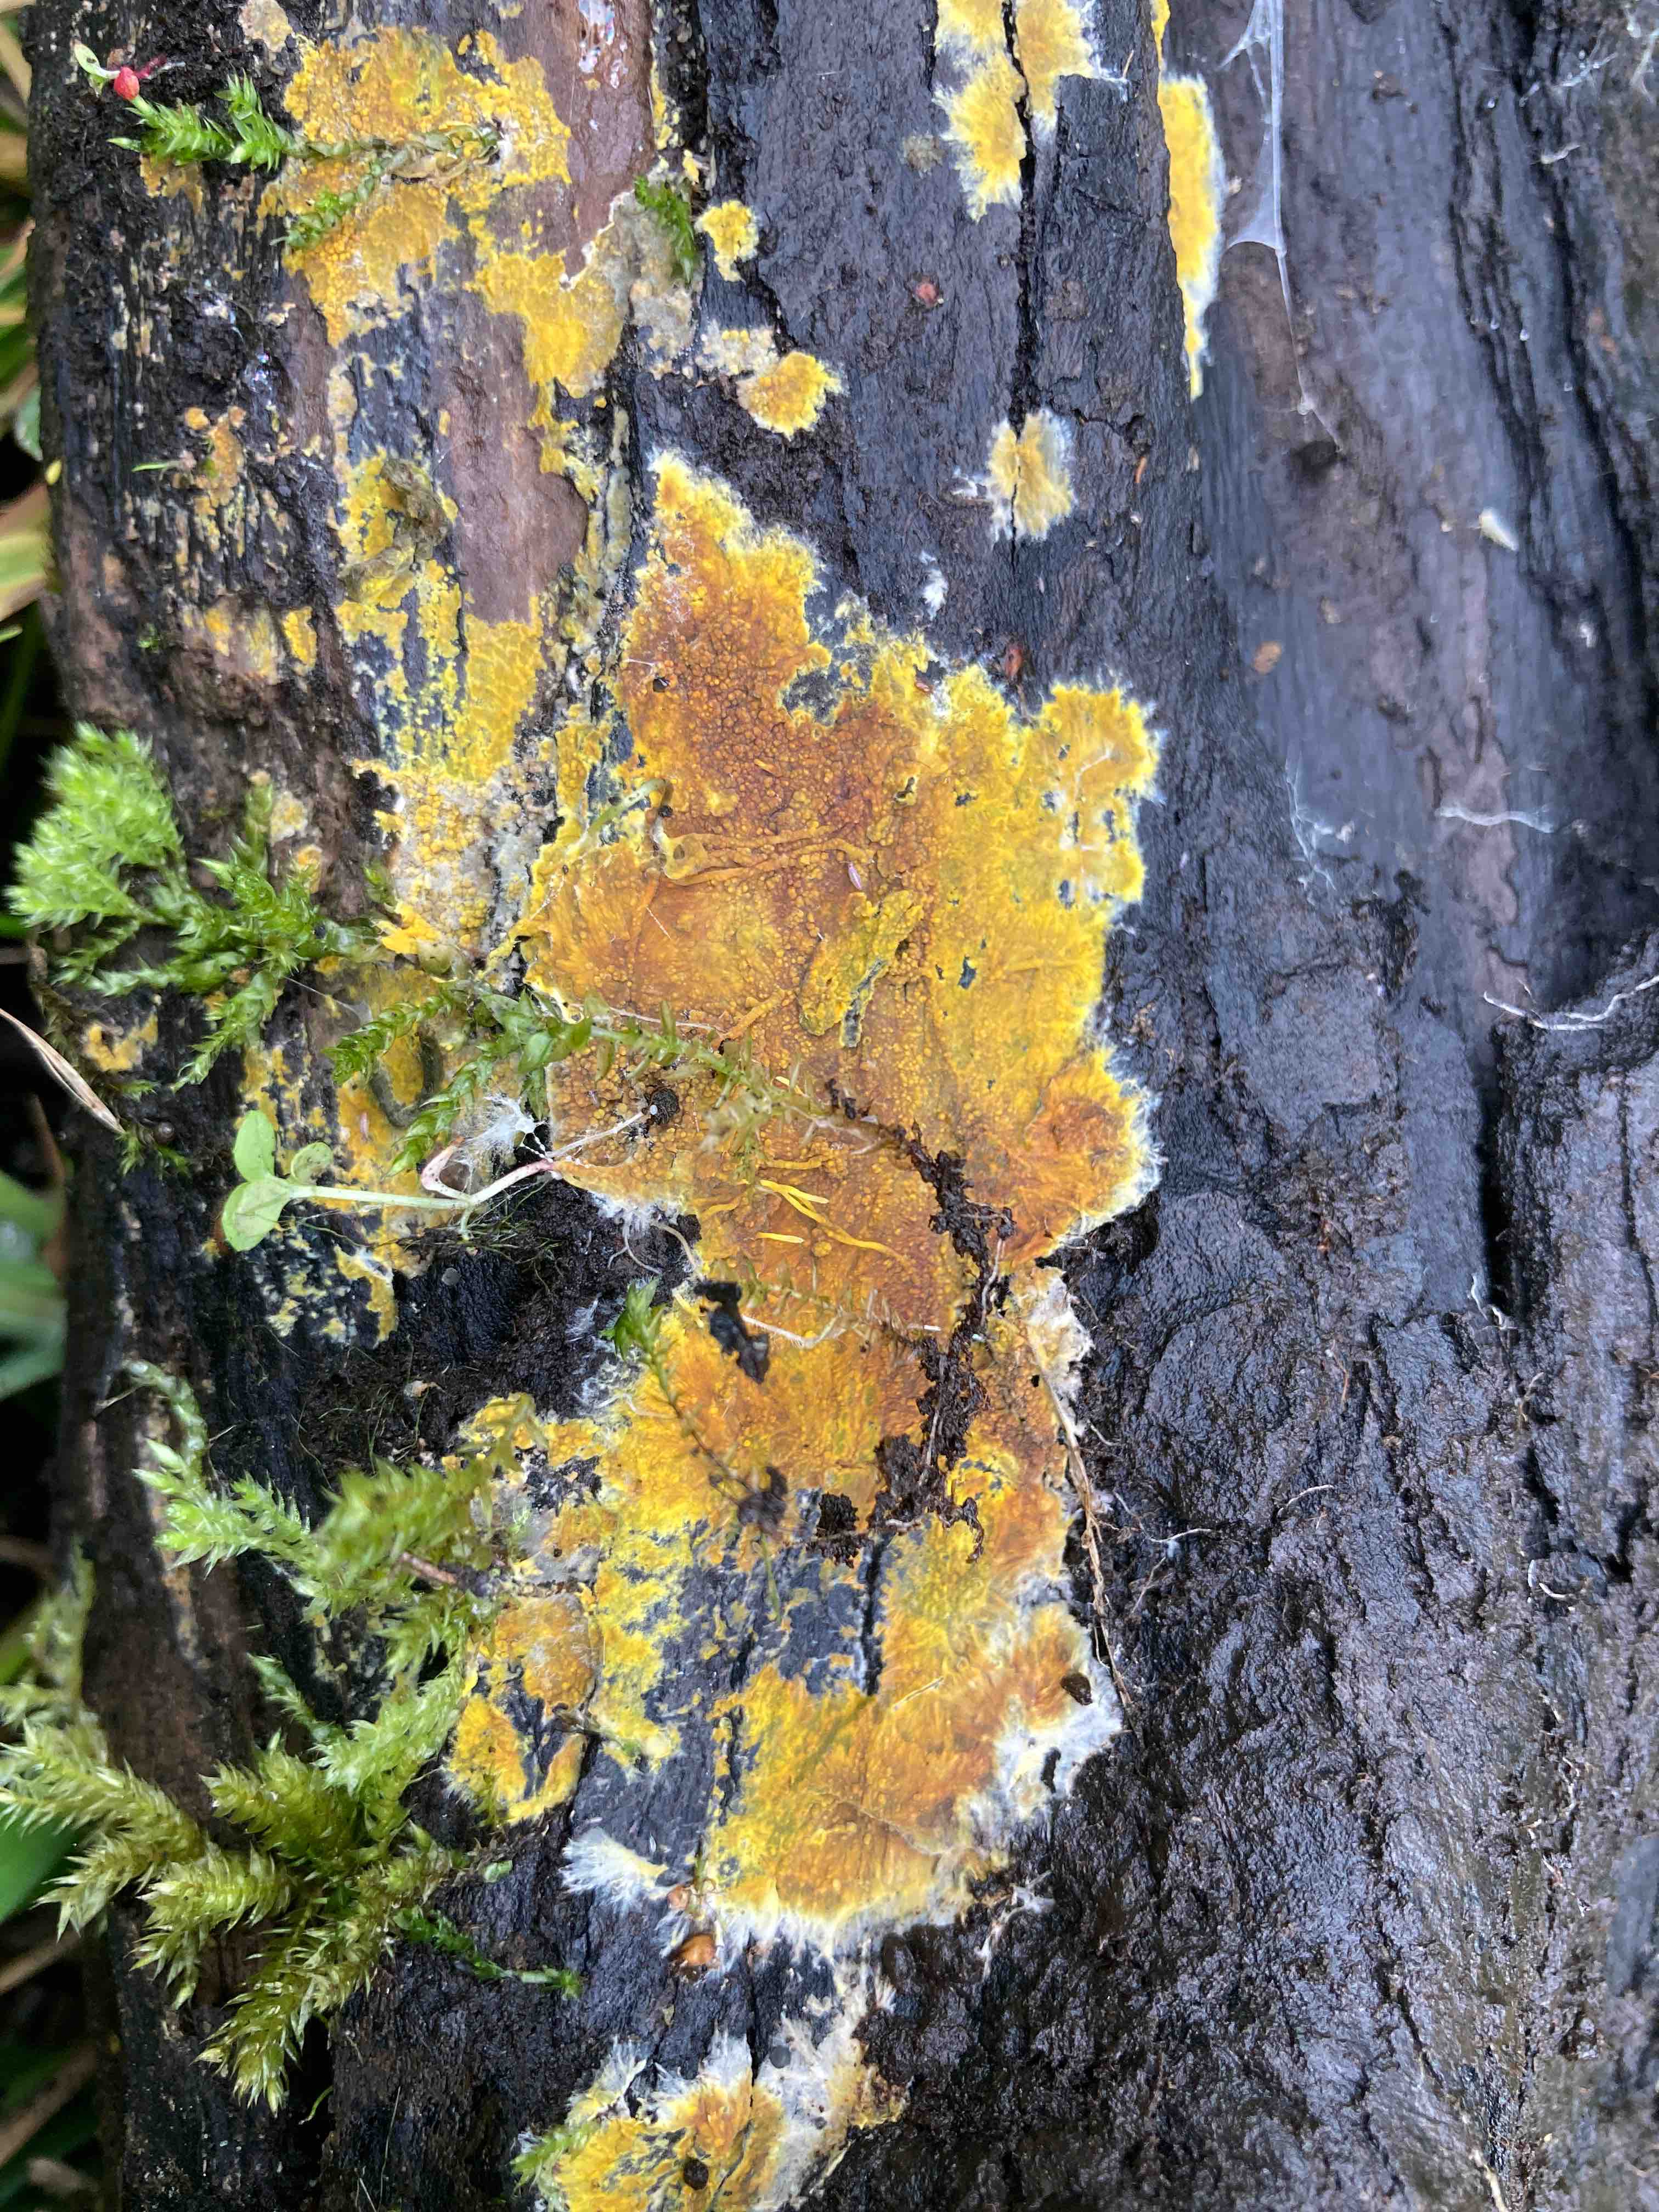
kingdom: Fungi
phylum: Basidiomycota
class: Agaricomycetes
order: Polyporales
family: Meruliaceae
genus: Phlebiodontia
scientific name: Phlebiodontia subochracea
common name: svovl-åresvamp
